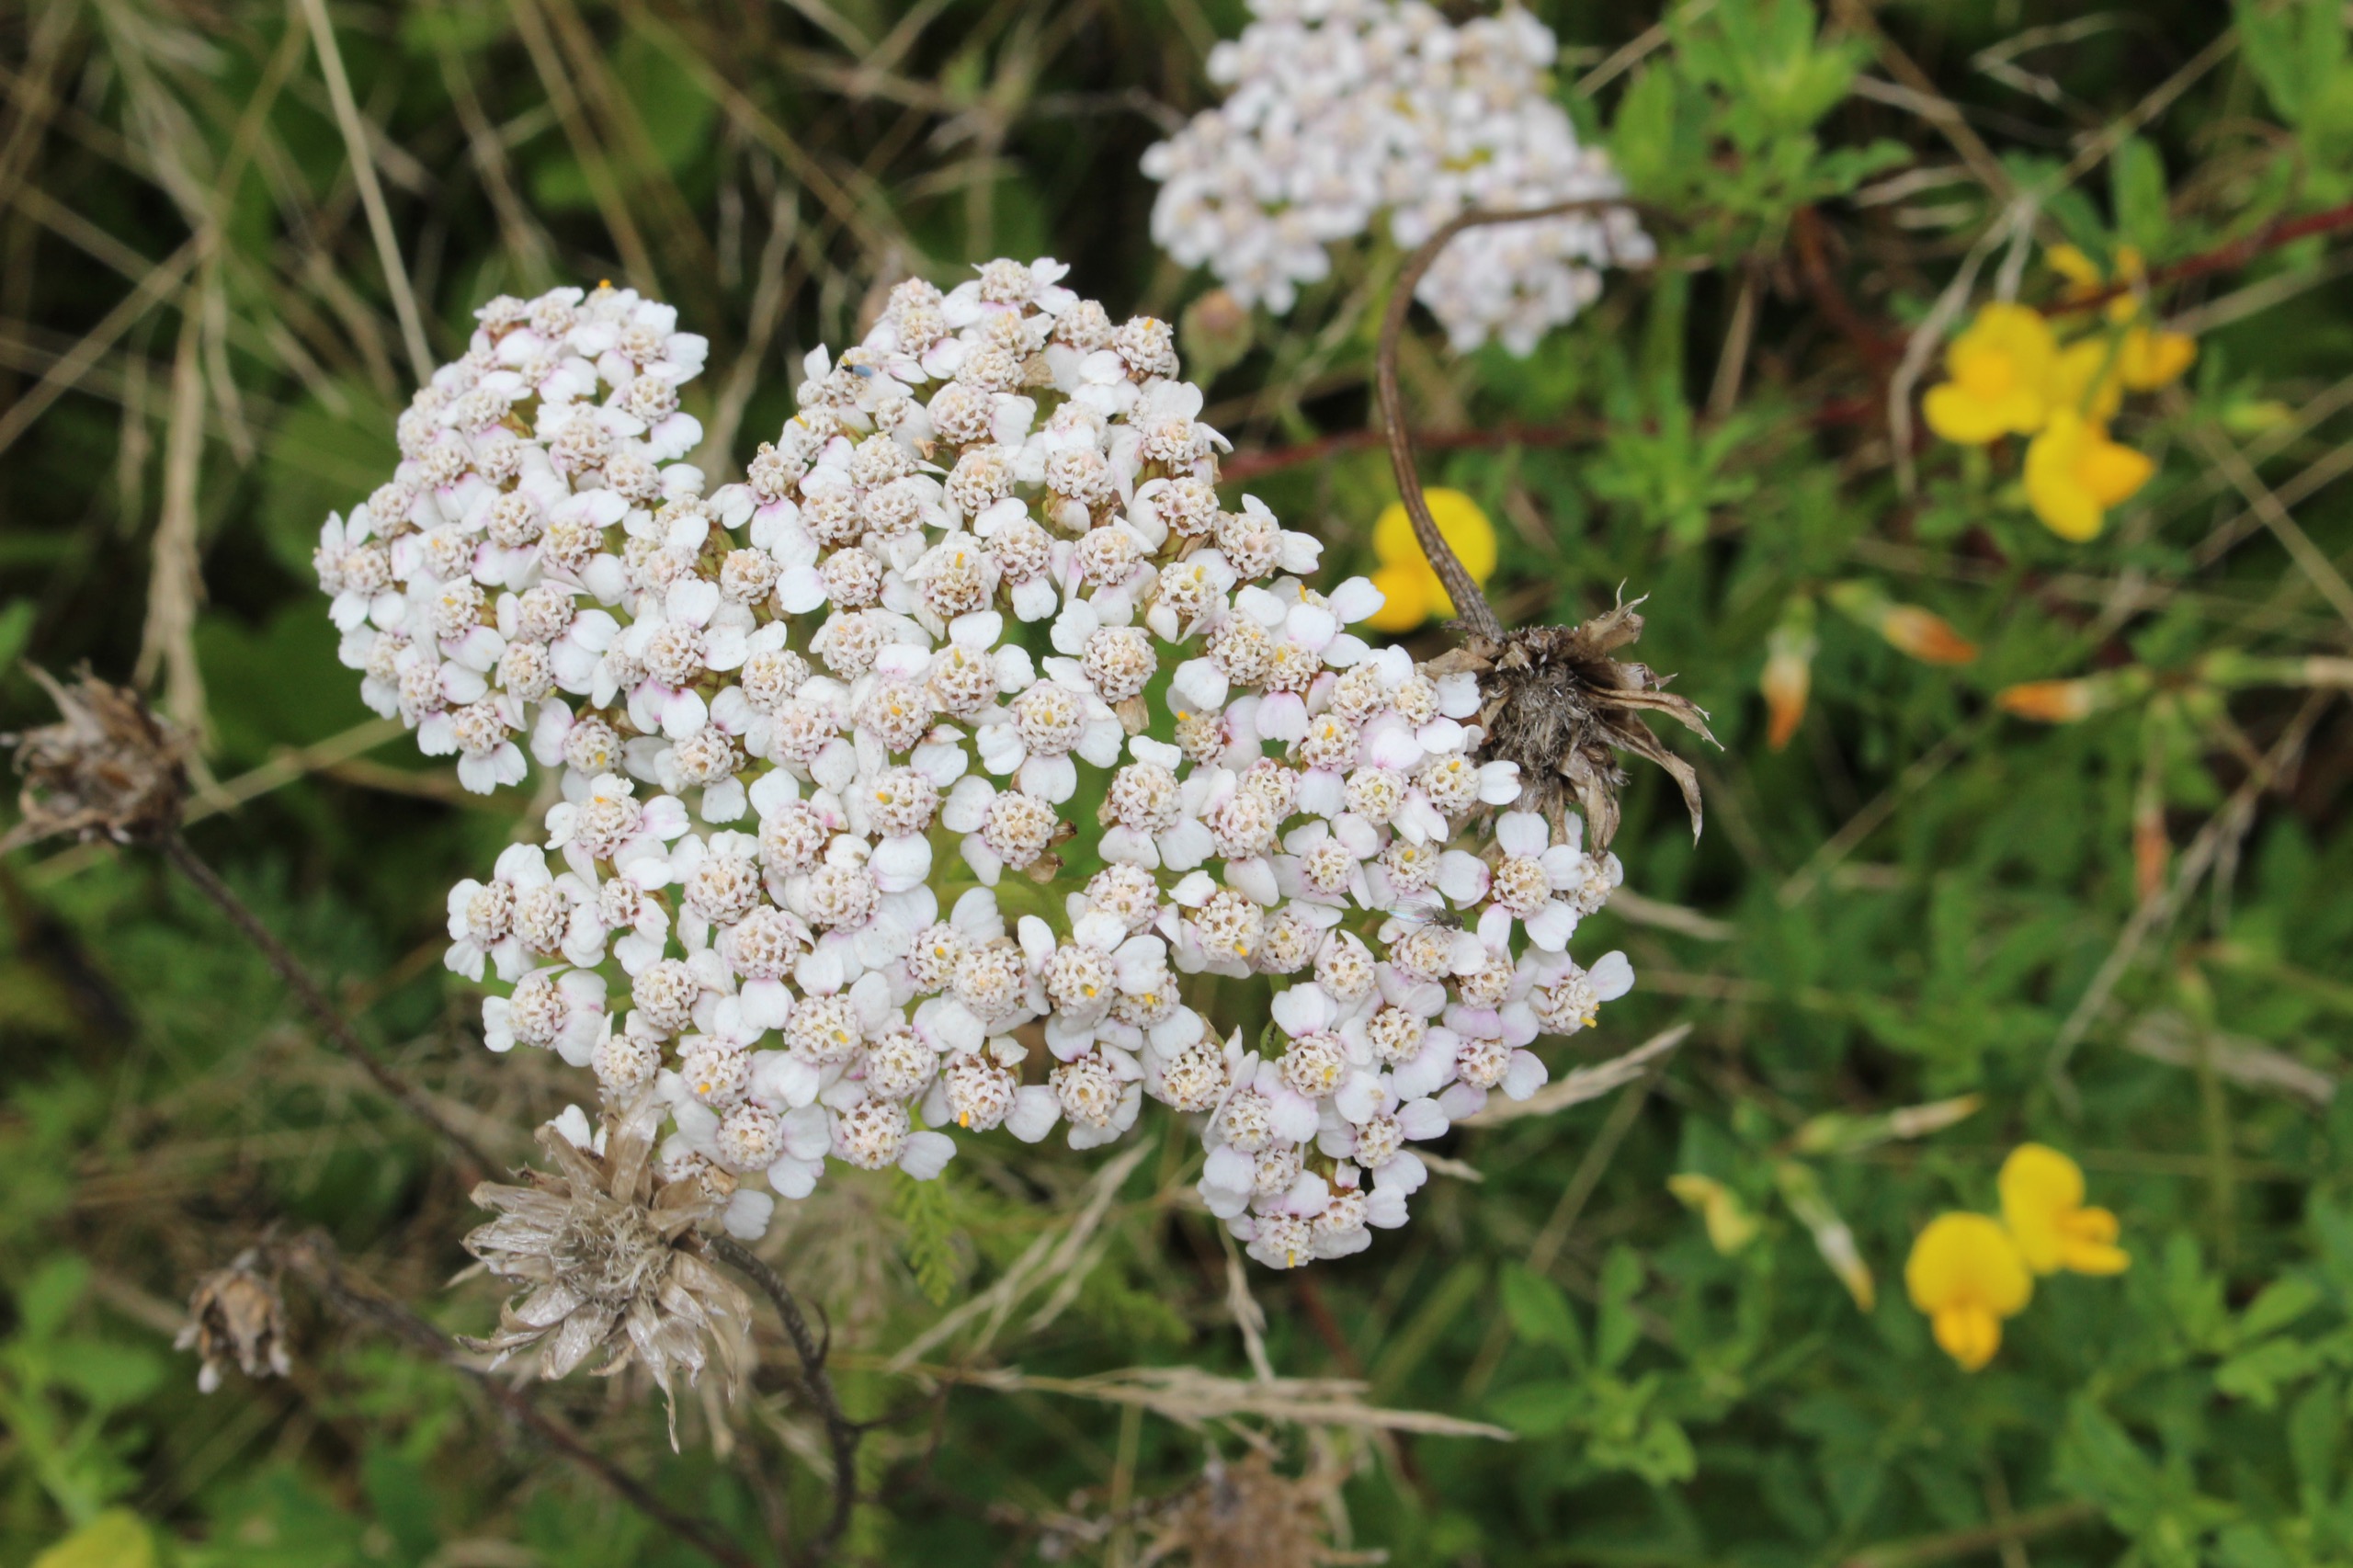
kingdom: Plantae
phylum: Tracheophyta
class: Magnoliopsida
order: Asterales
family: Asteraceae
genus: Achillea
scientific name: Achillea millefolium
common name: Almindelig røllike
